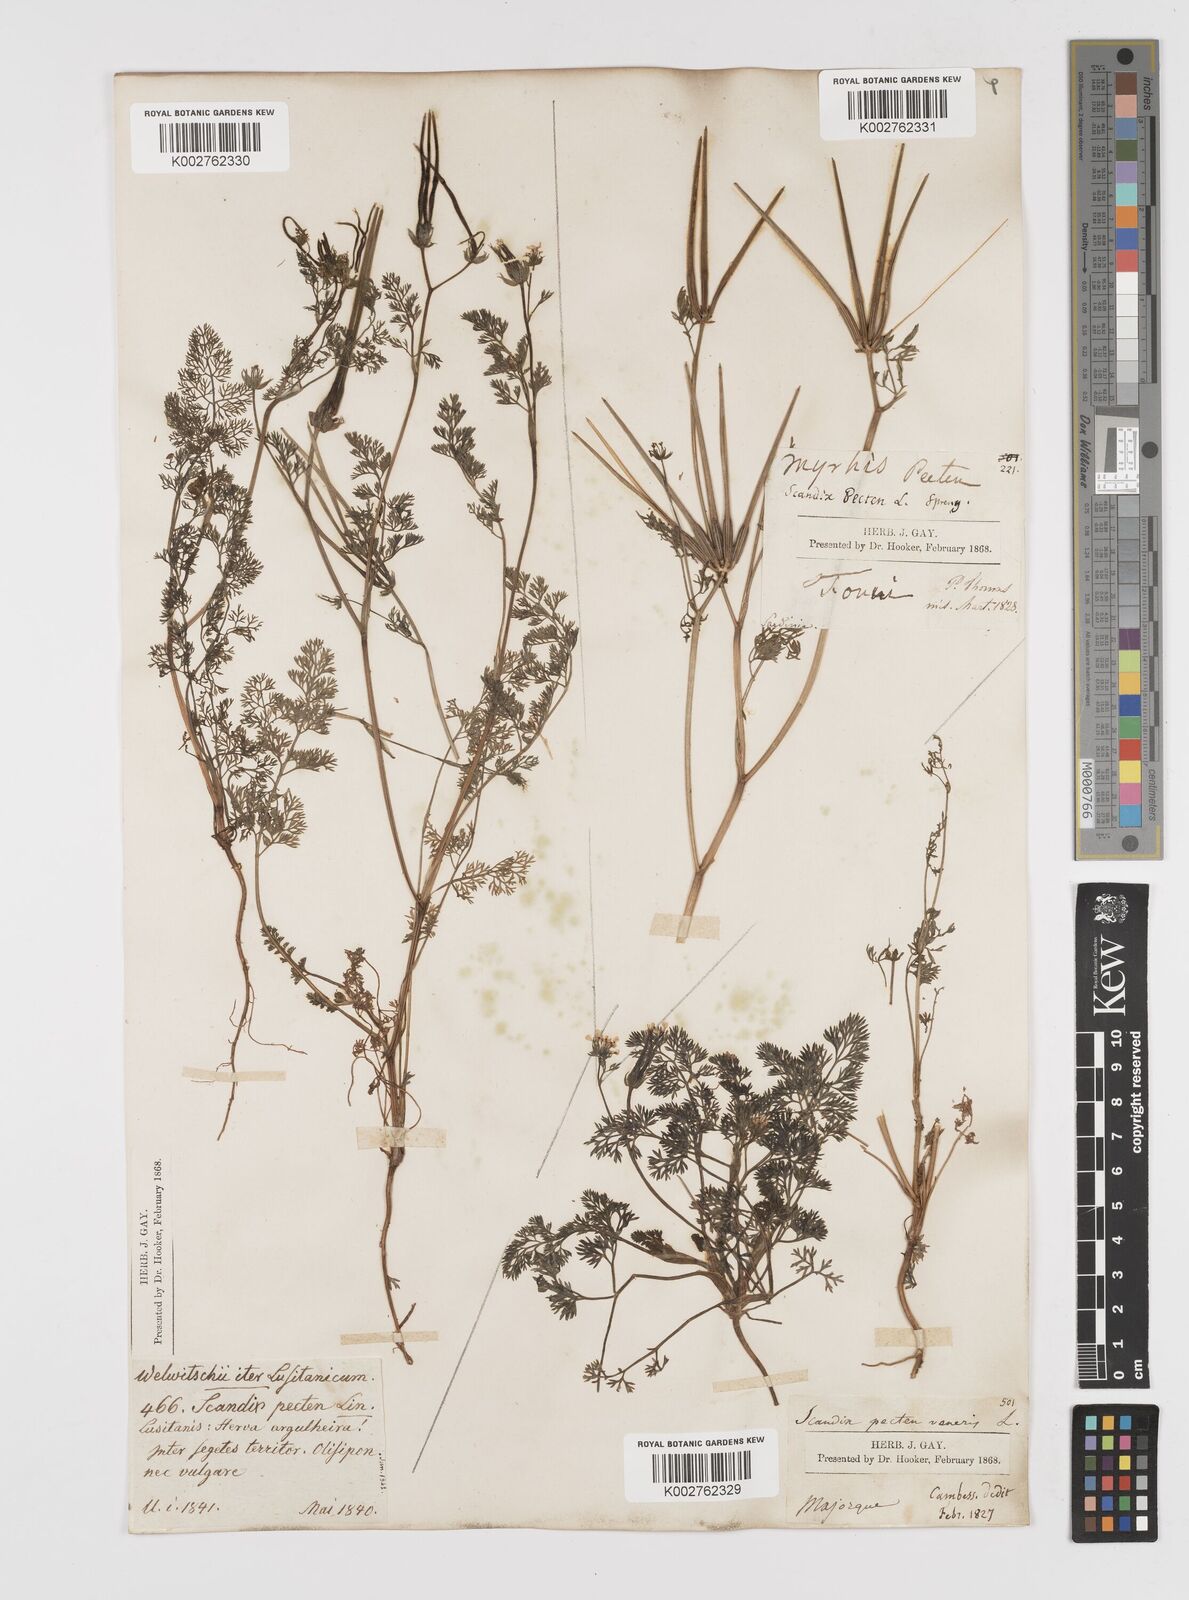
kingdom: Plantae
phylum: Tracheophyta
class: Magnoliopsida
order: Apiales
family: Apiaceae
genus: Scandix
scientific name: Scandix pecten-veneris
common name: Shepherd's-needle
